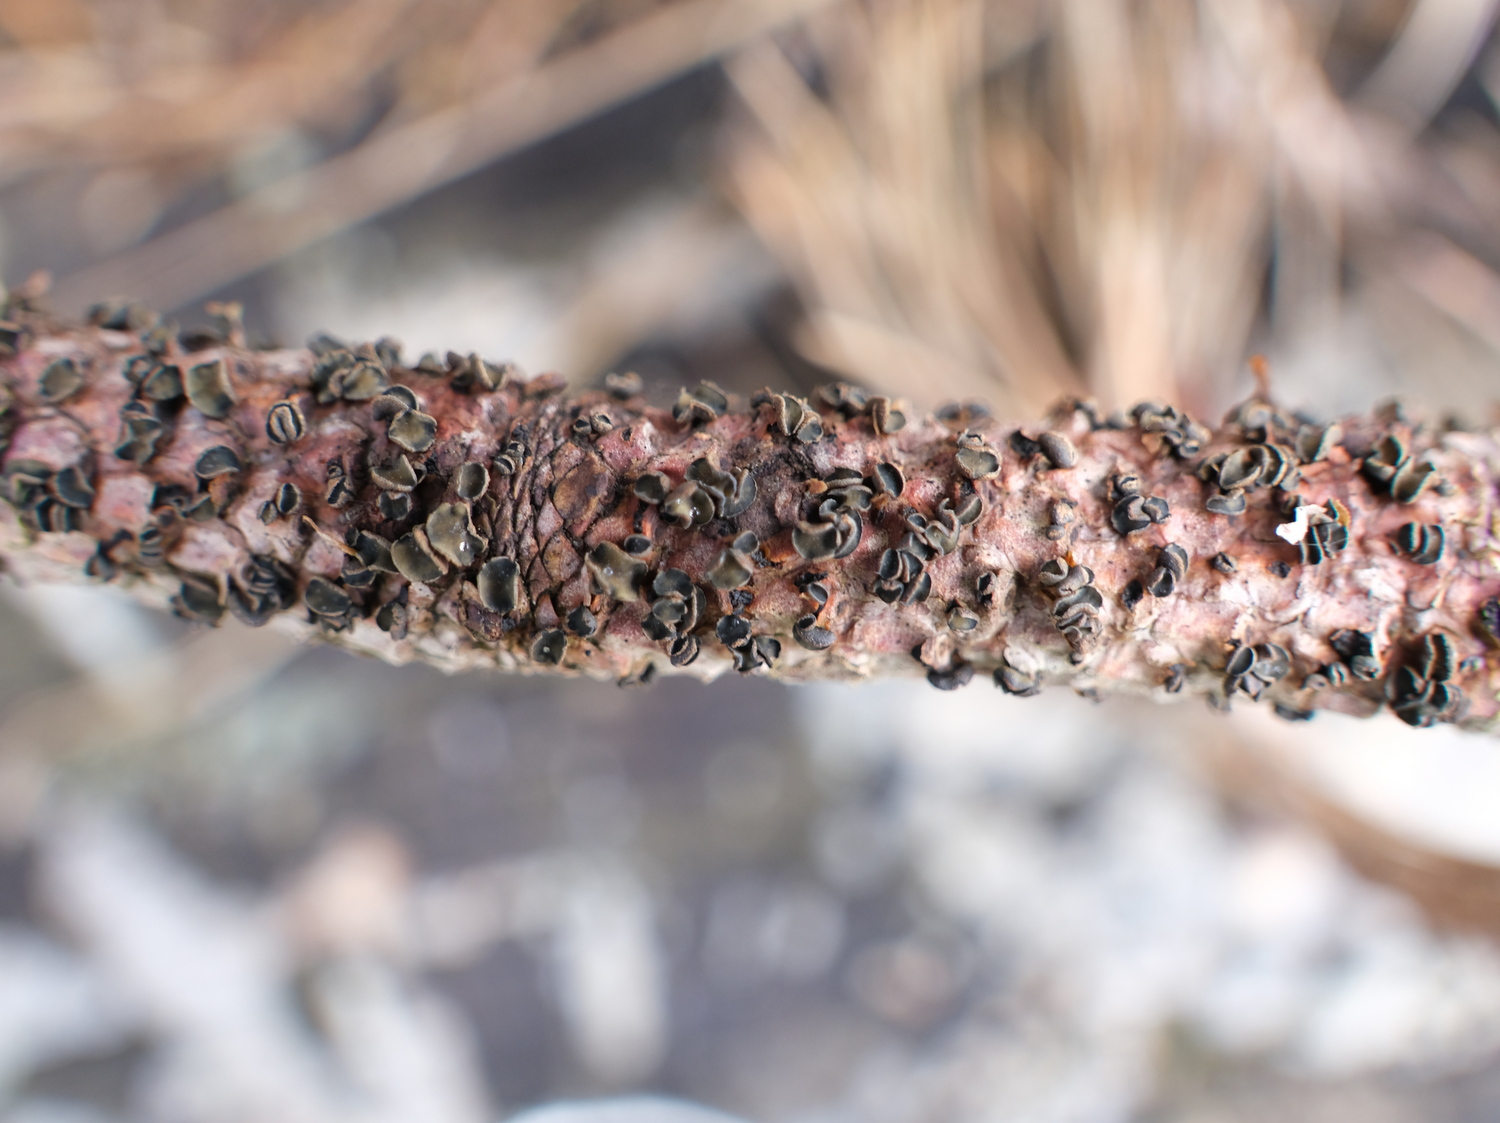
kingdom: Fungi
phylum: Ascomycota
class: Leotiomycetes
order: Helotiales
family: Cenangiaceae
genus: Cenangium
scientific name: Cenangium ferruginosum
